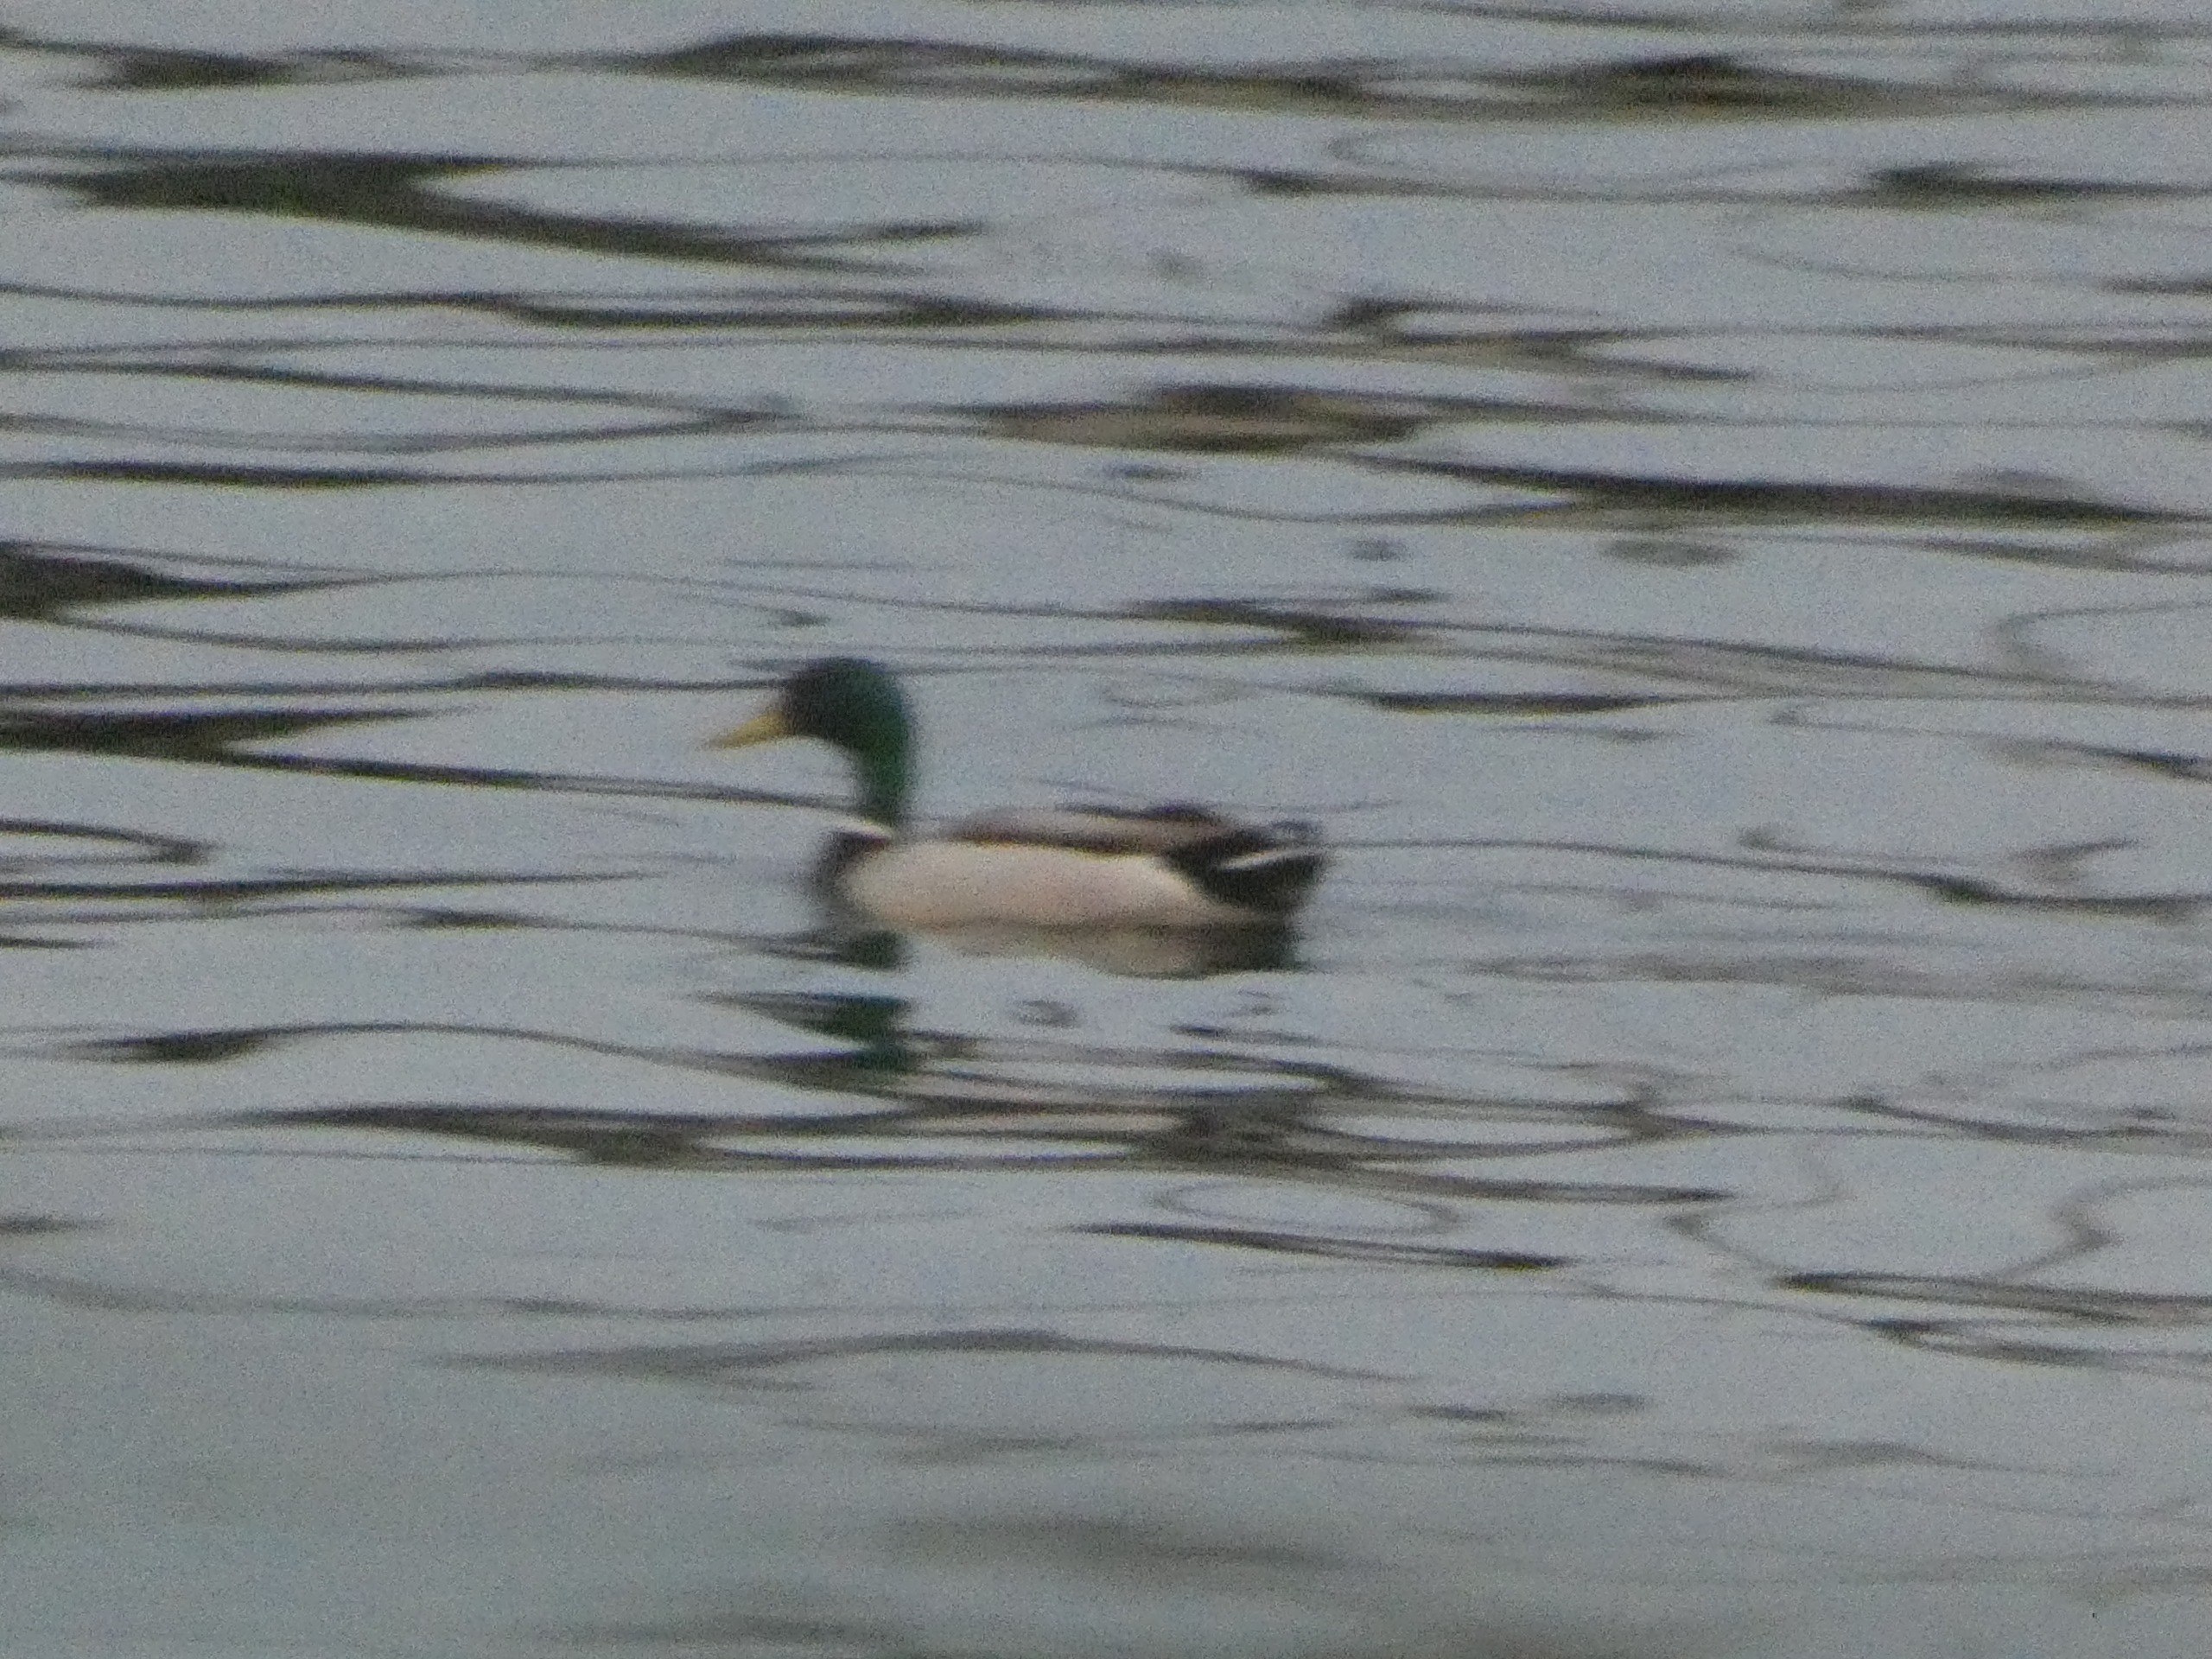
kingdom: Animalia
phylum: Chordata
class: Aves
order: Anseriformes
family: Anatidae
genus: Anas
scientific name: Anas platyrhynchos
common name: Gråand
